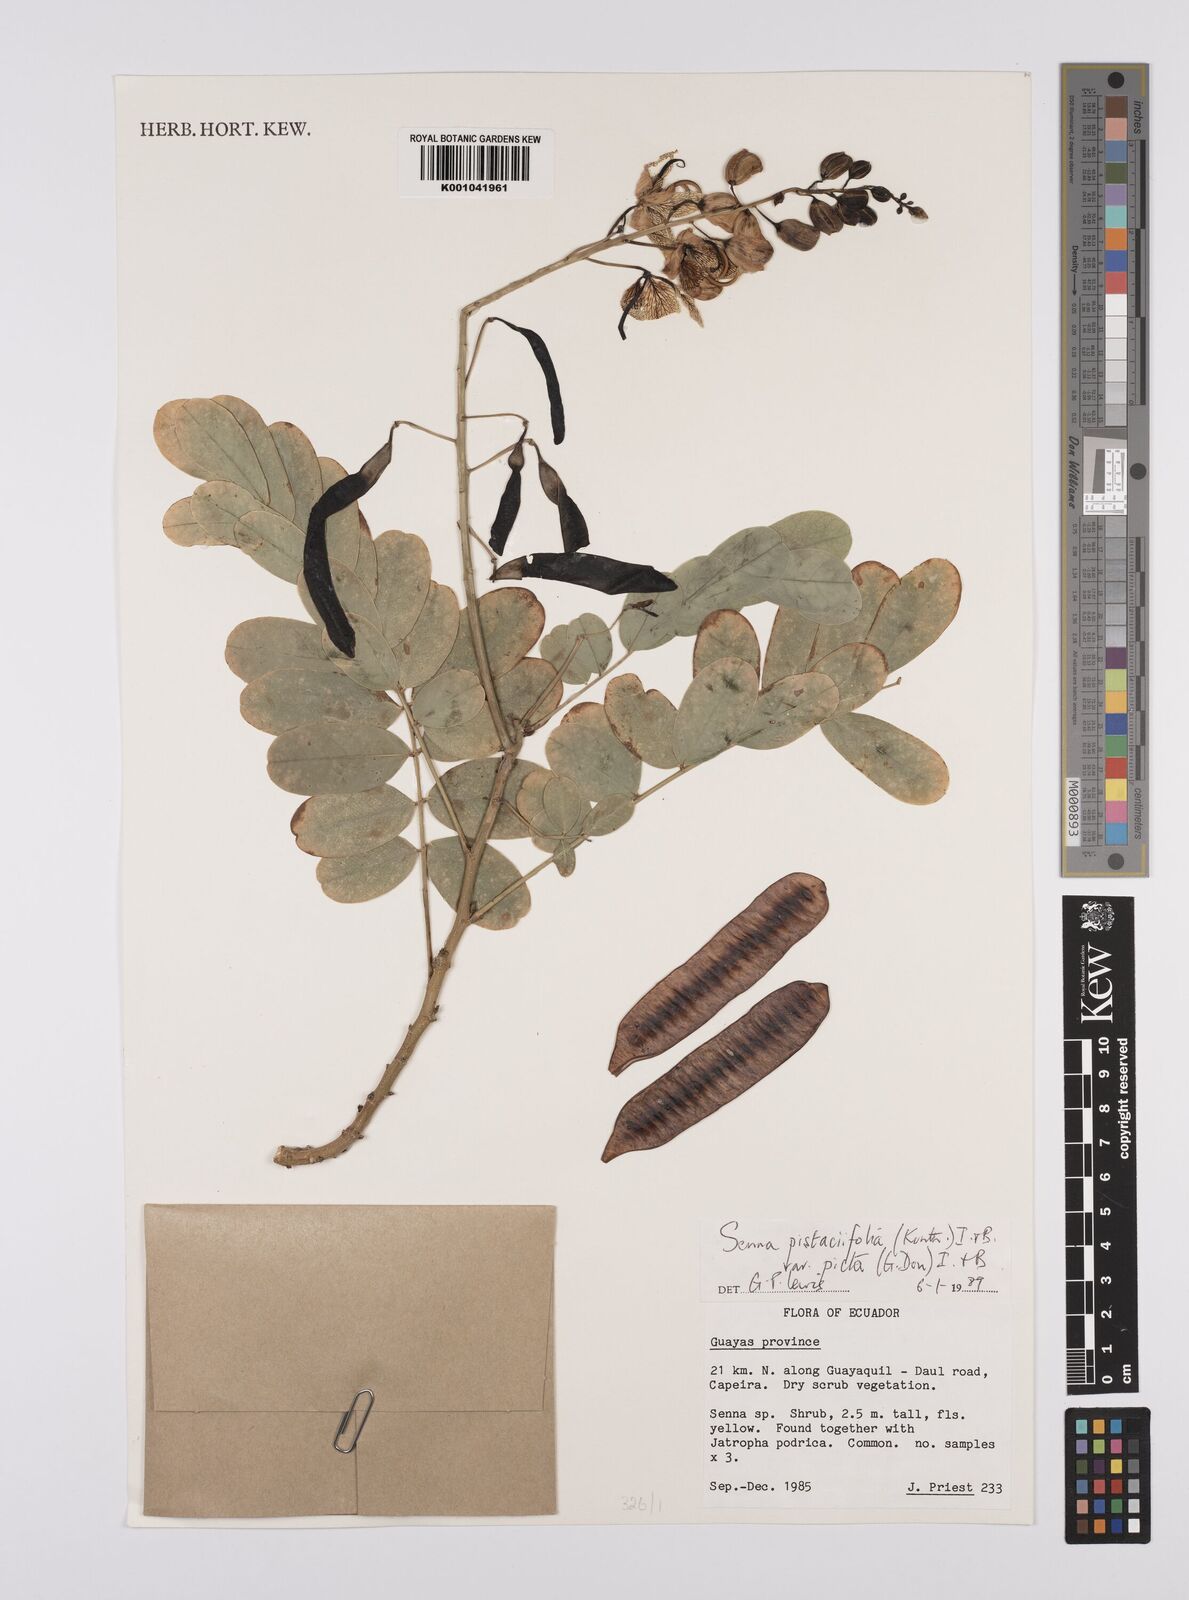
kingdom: Plantae
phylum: Tracheophyta
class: Magnoliopsida
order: Fabales
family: Fabaceae
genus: Senna
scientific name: Senna pistaciifolia
